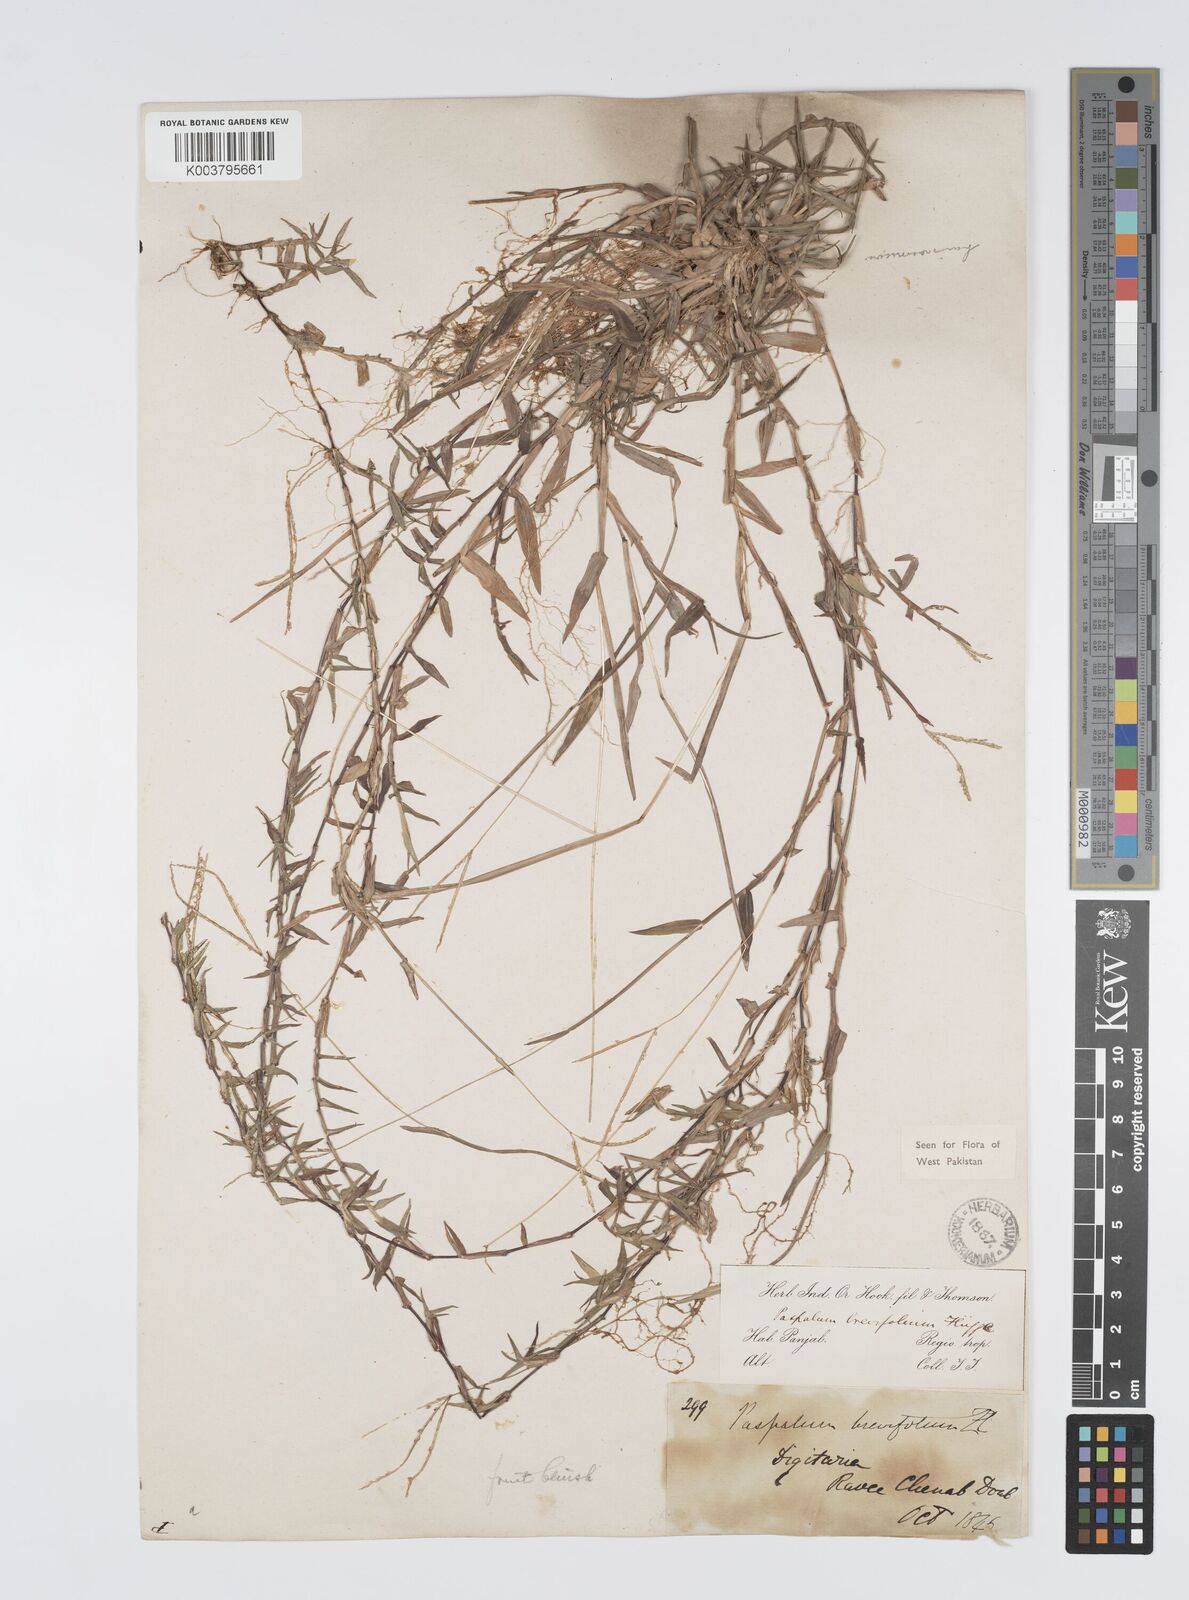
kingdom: Plantae
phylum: Tracheophyta
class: Liliopsida
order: Poales
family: Poaceae
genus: Digitaria
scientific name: Digitaria longiflora
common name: Wire crabgrass
